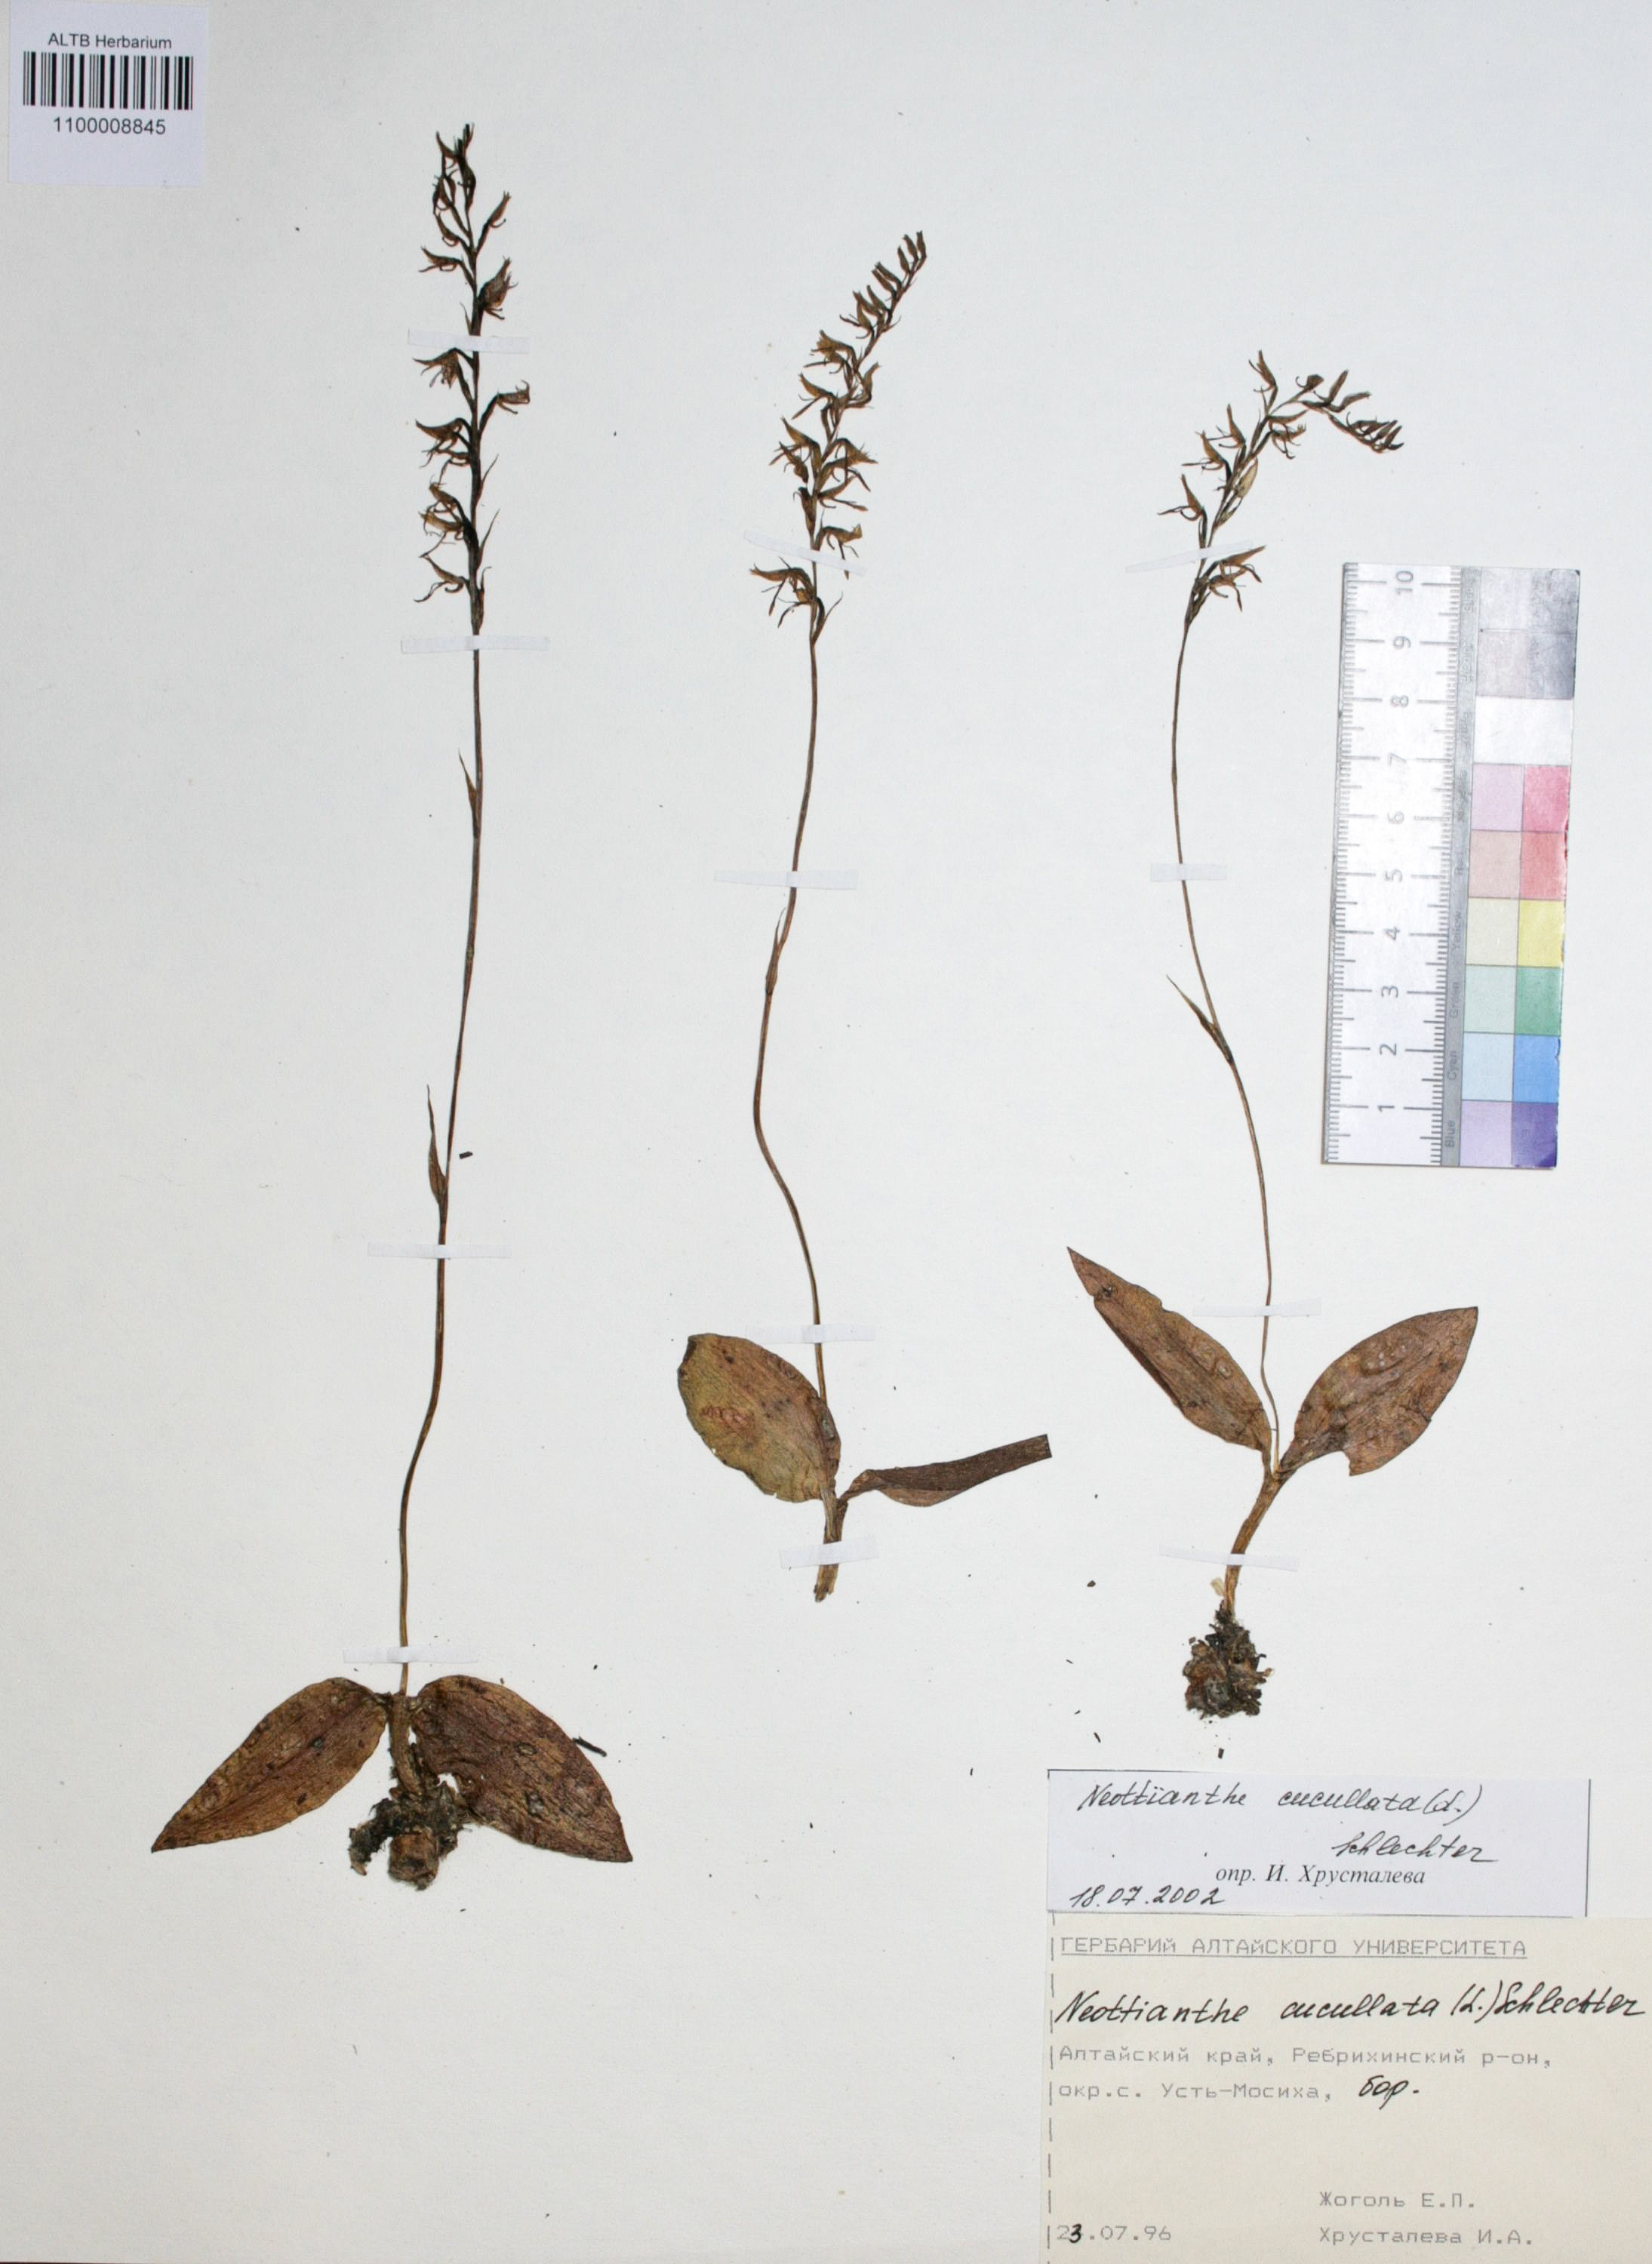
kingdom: Plantae
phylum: Tracheophyta
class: Liliopsida
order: Asparagales
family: Orchidaceae
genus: Hemipilia
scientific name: Hemipilia cucullata
